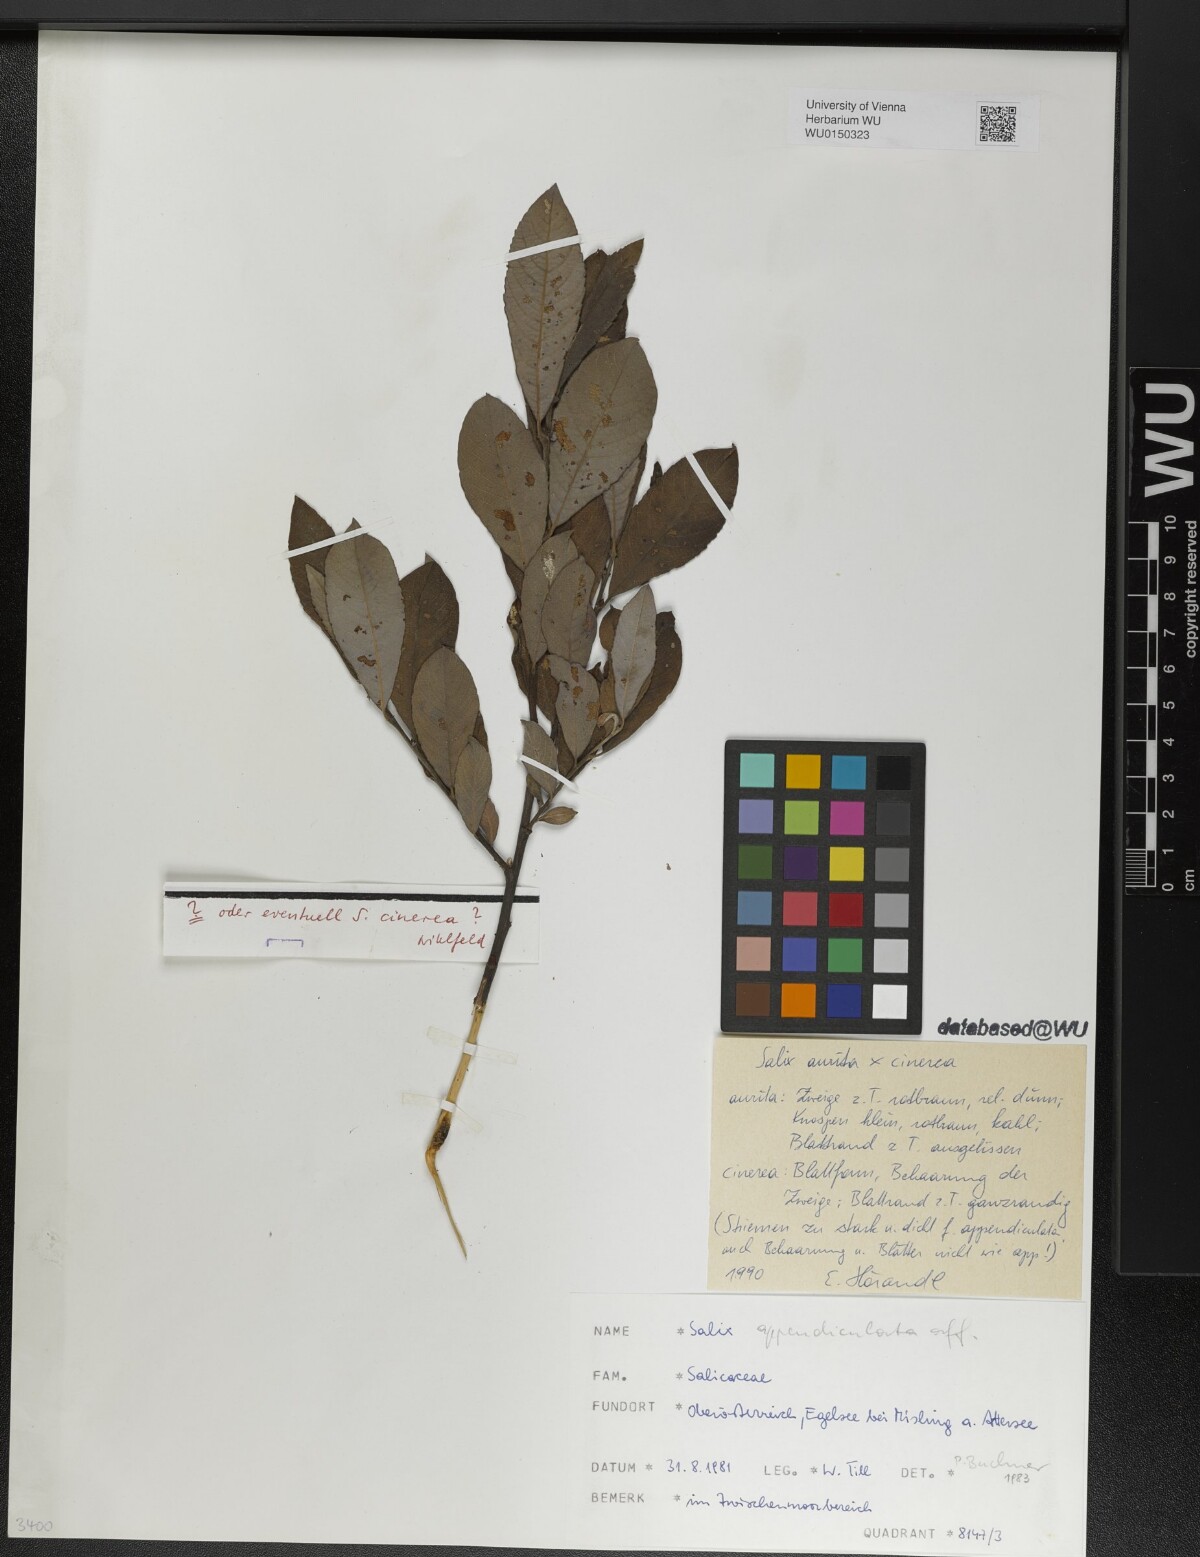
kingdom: Plantae
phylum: Tracheophyta
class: Magnoliopsida
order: Malpighiales
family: Salicaceae
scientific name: Salicaceae
